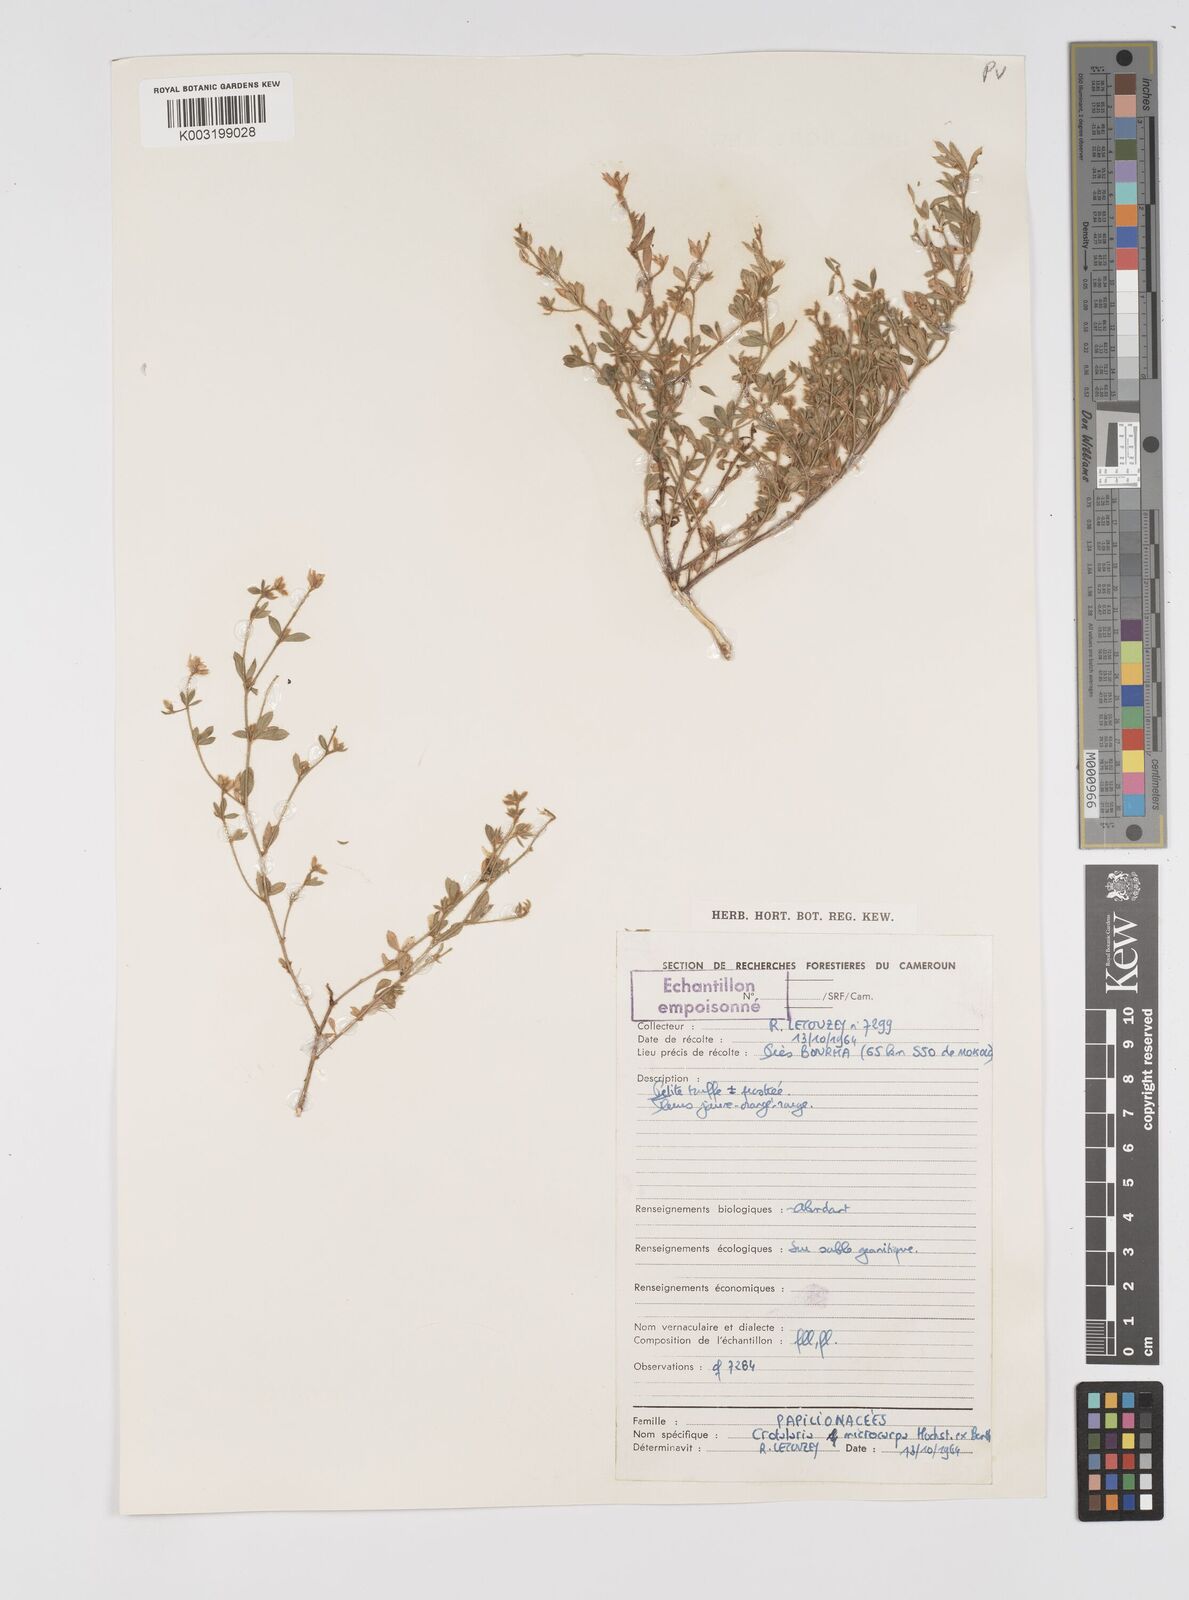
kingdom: Plantae
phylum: Tracheophyta
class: Magnoliopsida
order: Fabales
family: Fabaceae
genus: Crotalaria
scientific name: Crotalaria microcarpa
